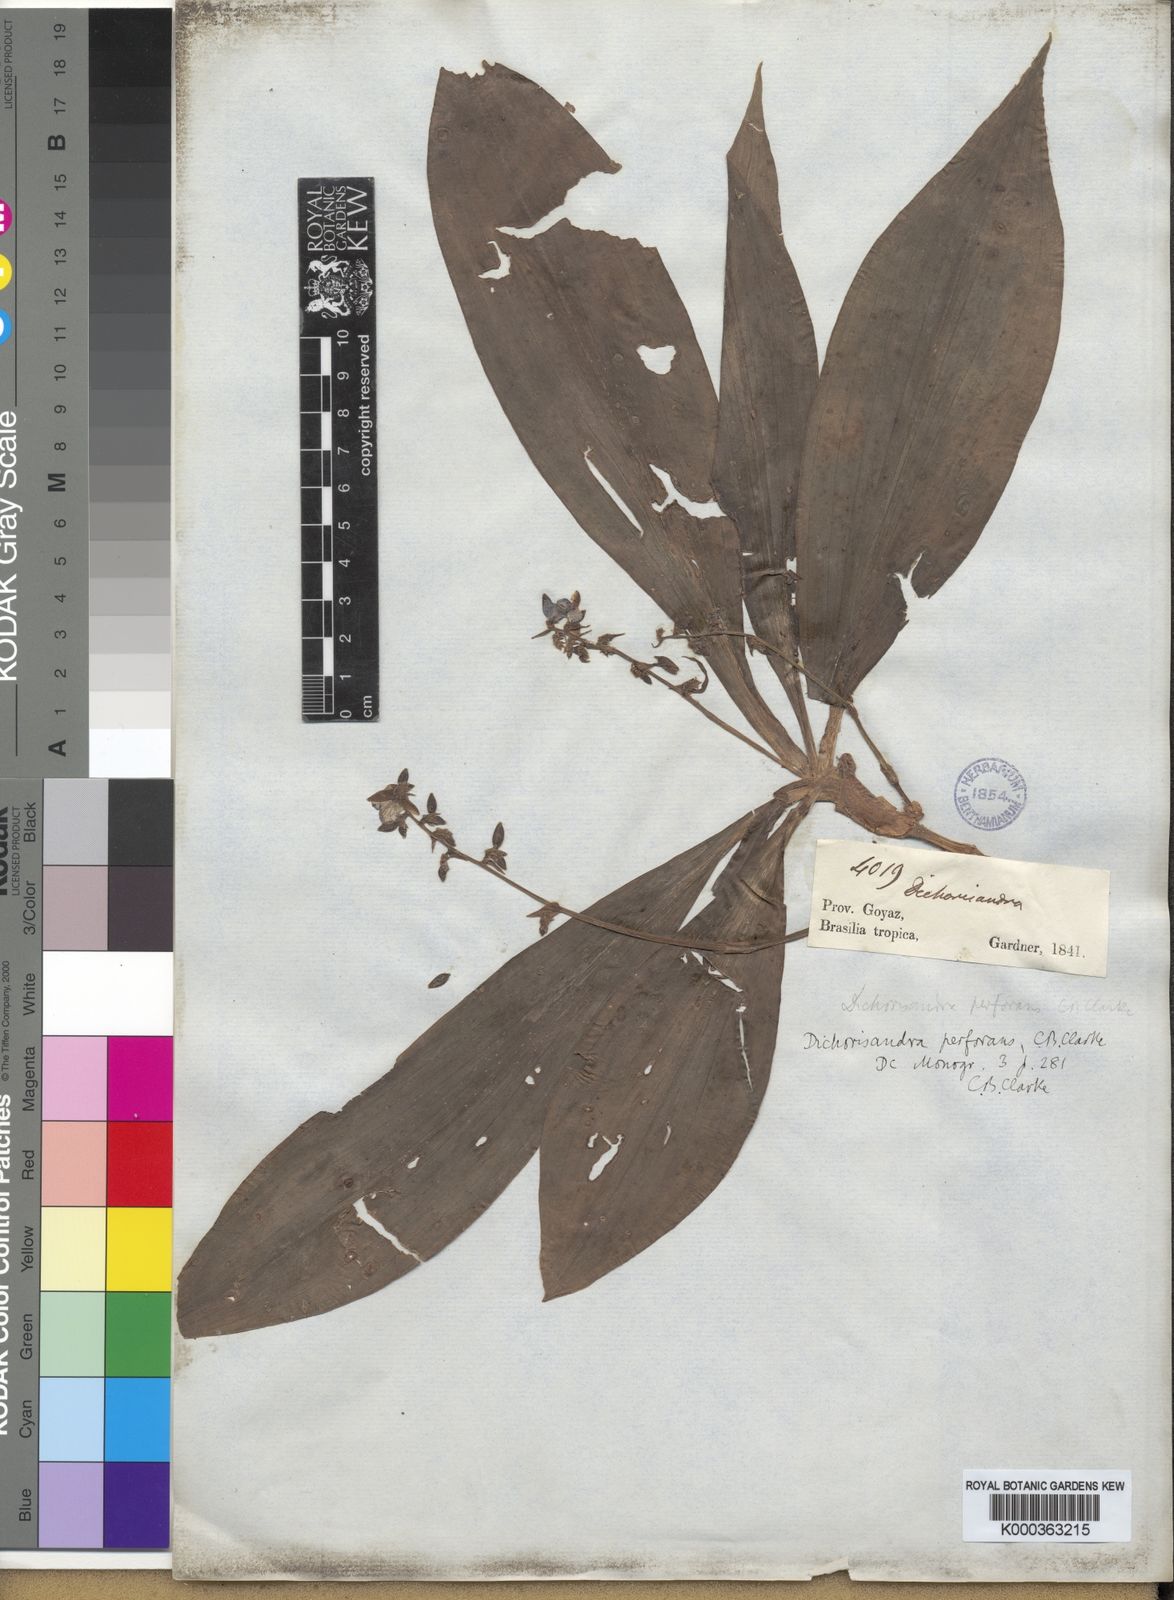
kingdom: Plantae
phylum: Tracheophyta
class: Liliopsida
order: Commelinales
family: Commelinaceae
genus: Dichorisandra
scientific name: Dichorisandra
